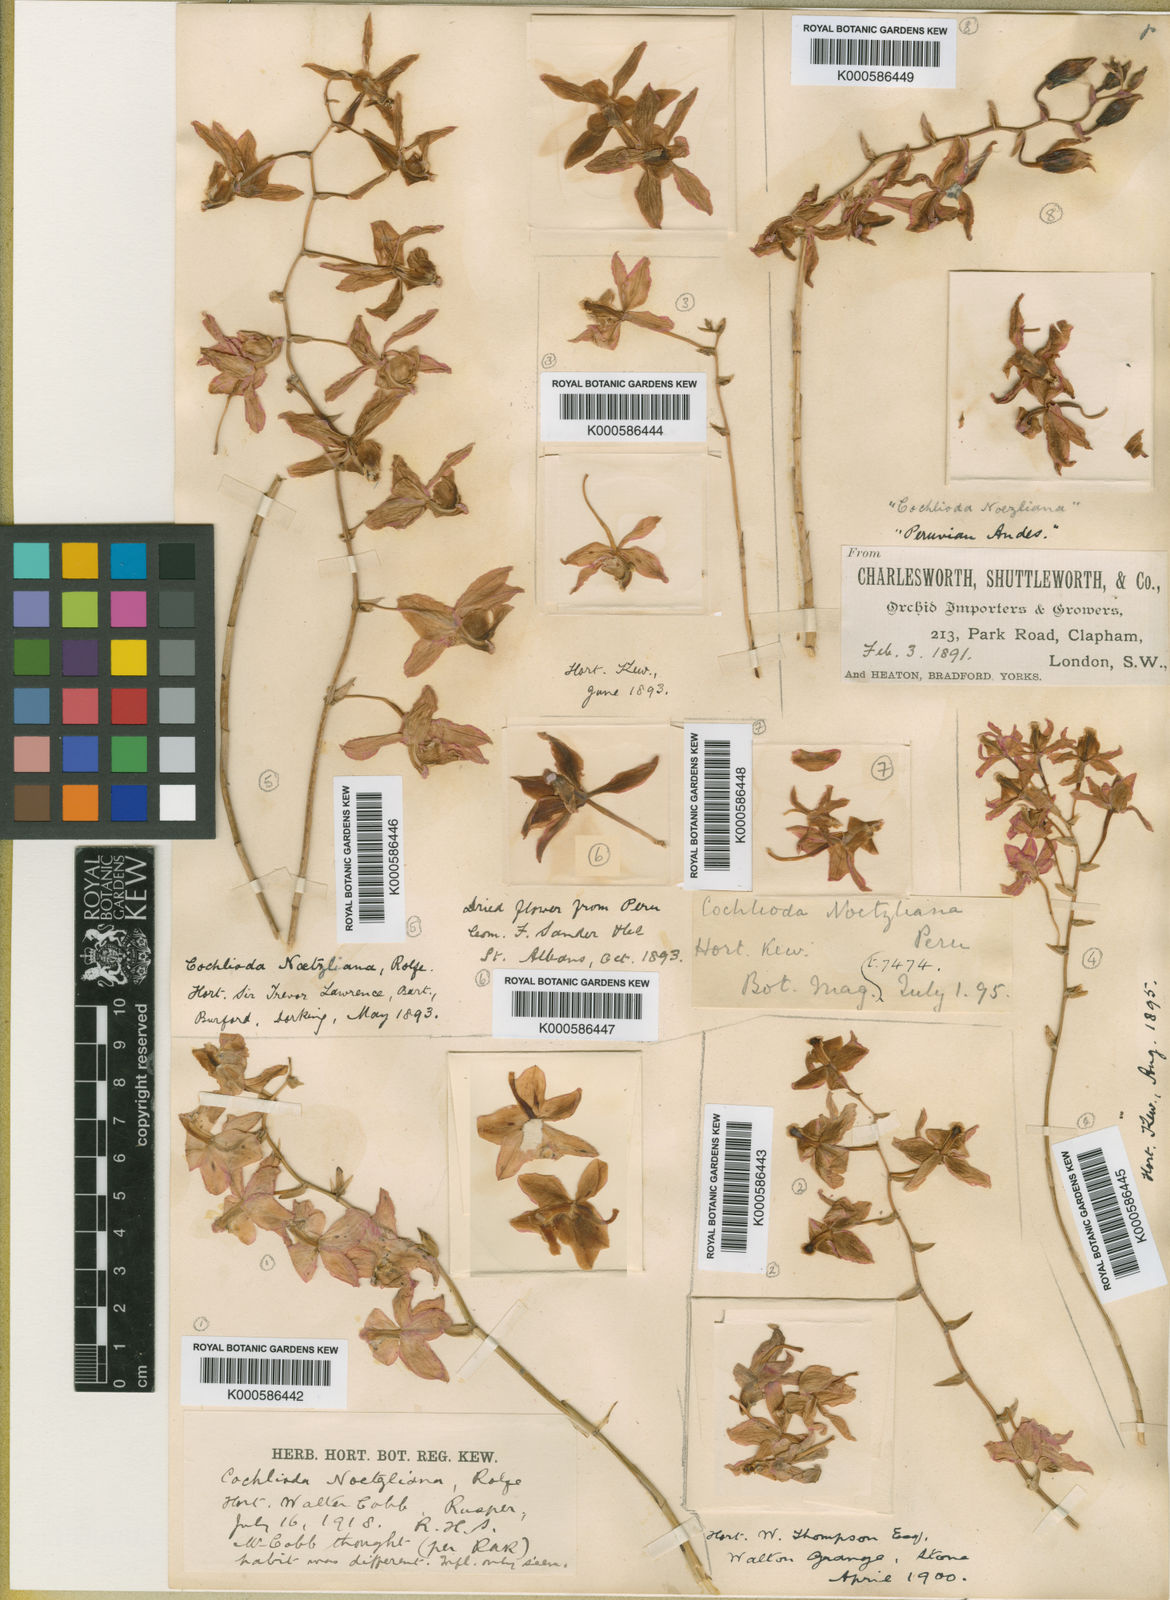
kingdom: Plantae
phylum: Tracheophyta
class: Liliopsida
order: Asparagales
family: Orchidaceae
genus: Oncidium
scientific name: Oncidium noezlianum
